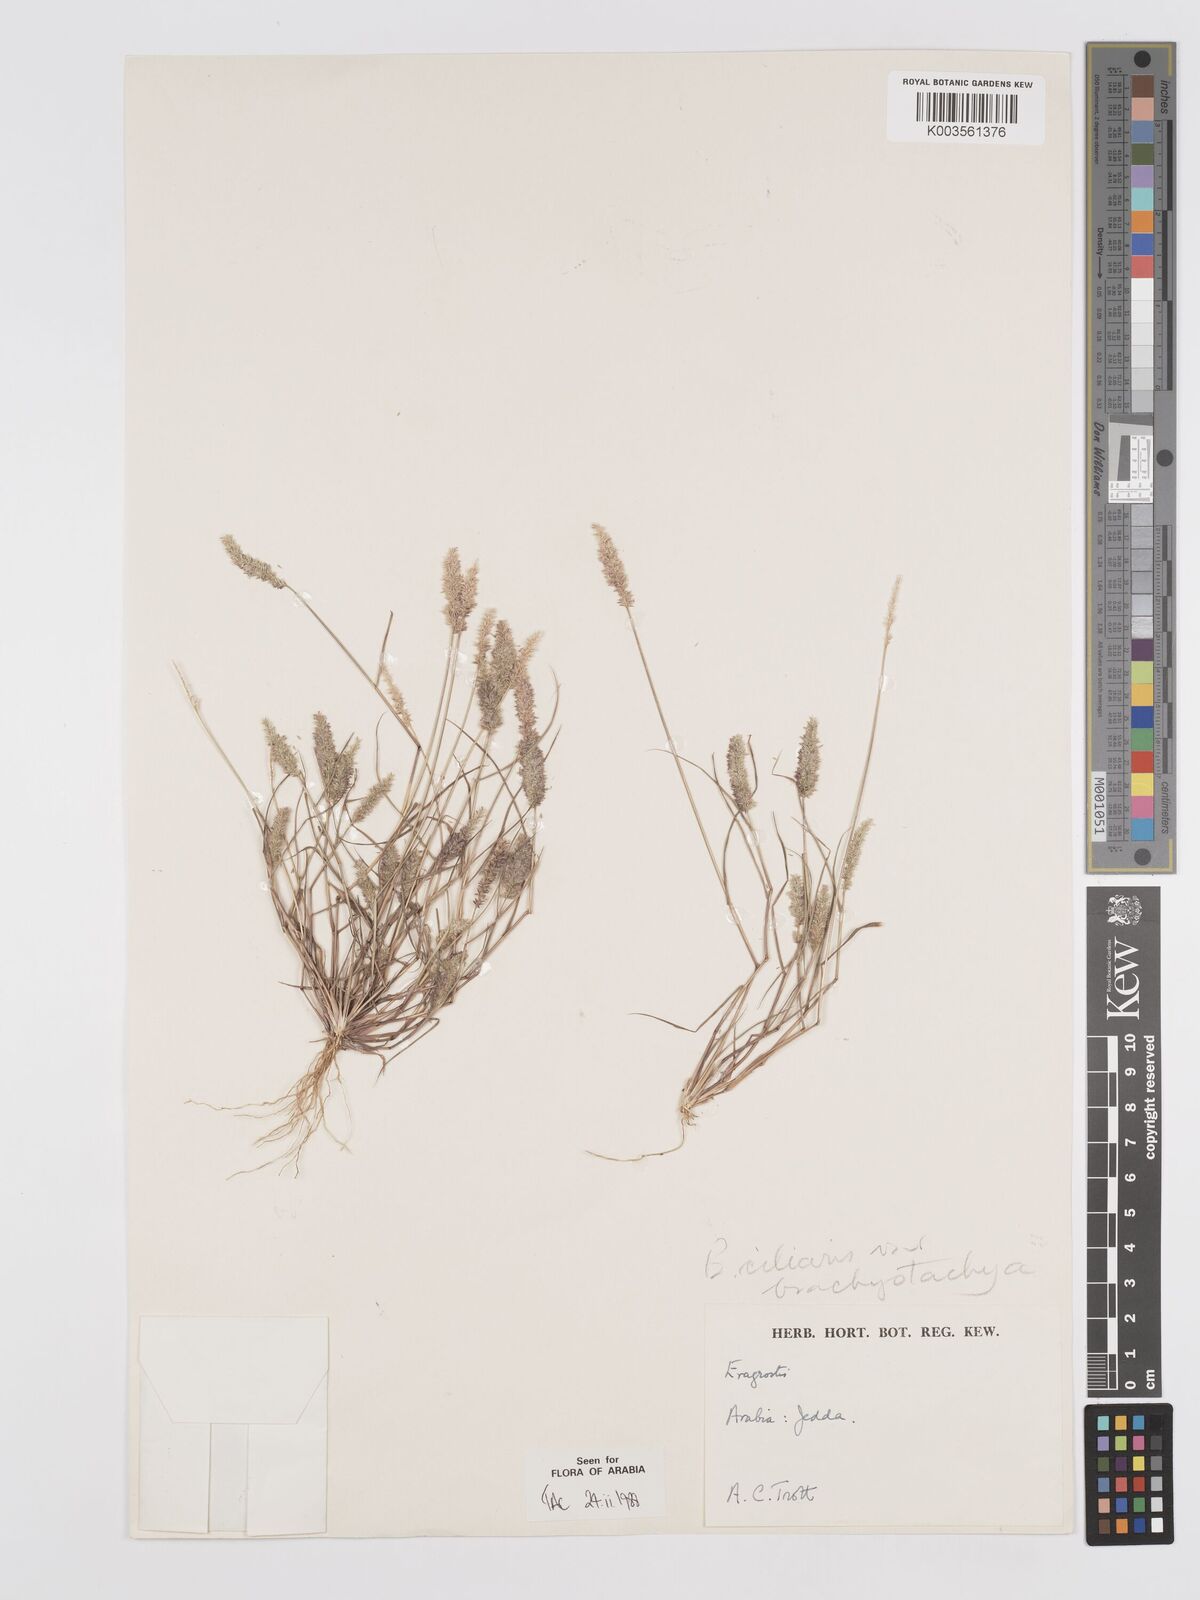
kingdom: Plantae
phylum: Tracheophyta
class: Liliopsida
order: Poales
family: Poaceae
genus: Eragrostis
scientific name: Eragrostis ciliaris
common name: Gophertail lovegrass
